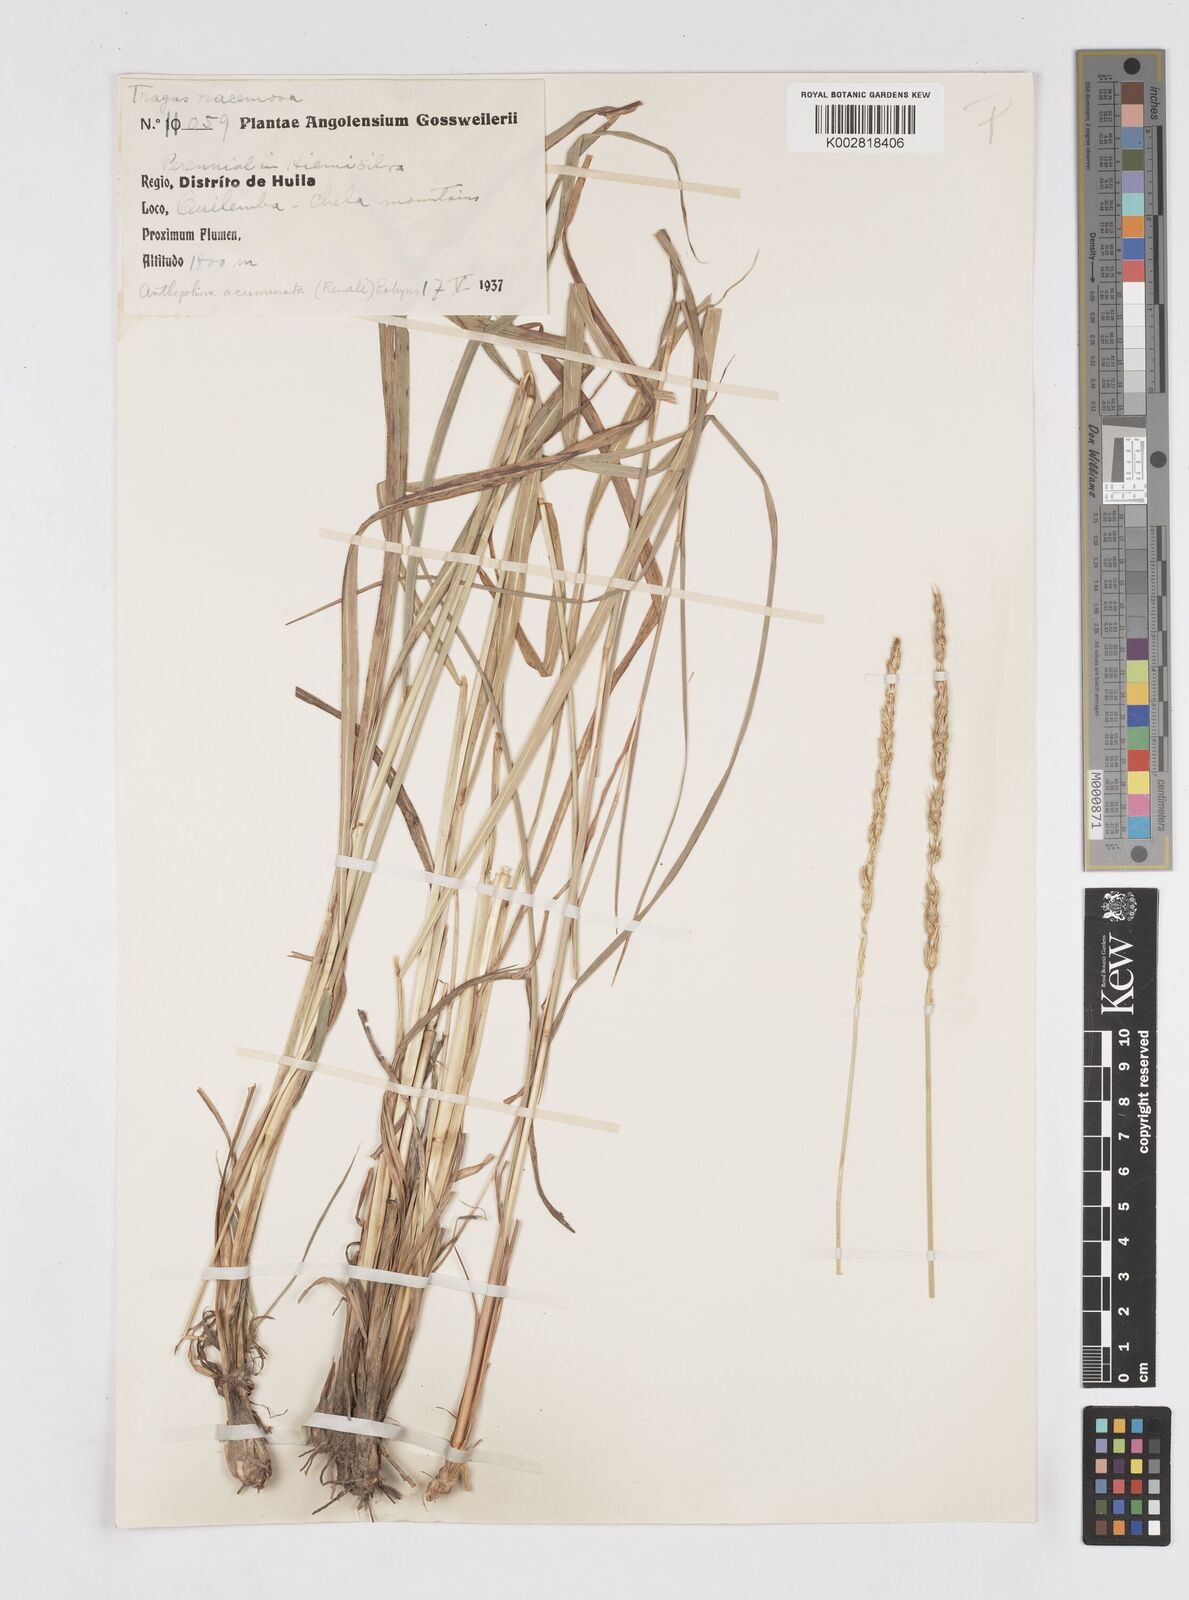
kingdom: Plantae
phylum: Tracheophyta
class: Liliopsida
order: Poales
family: Poaceae
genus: Anthephora
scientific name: Anthephora elongata
